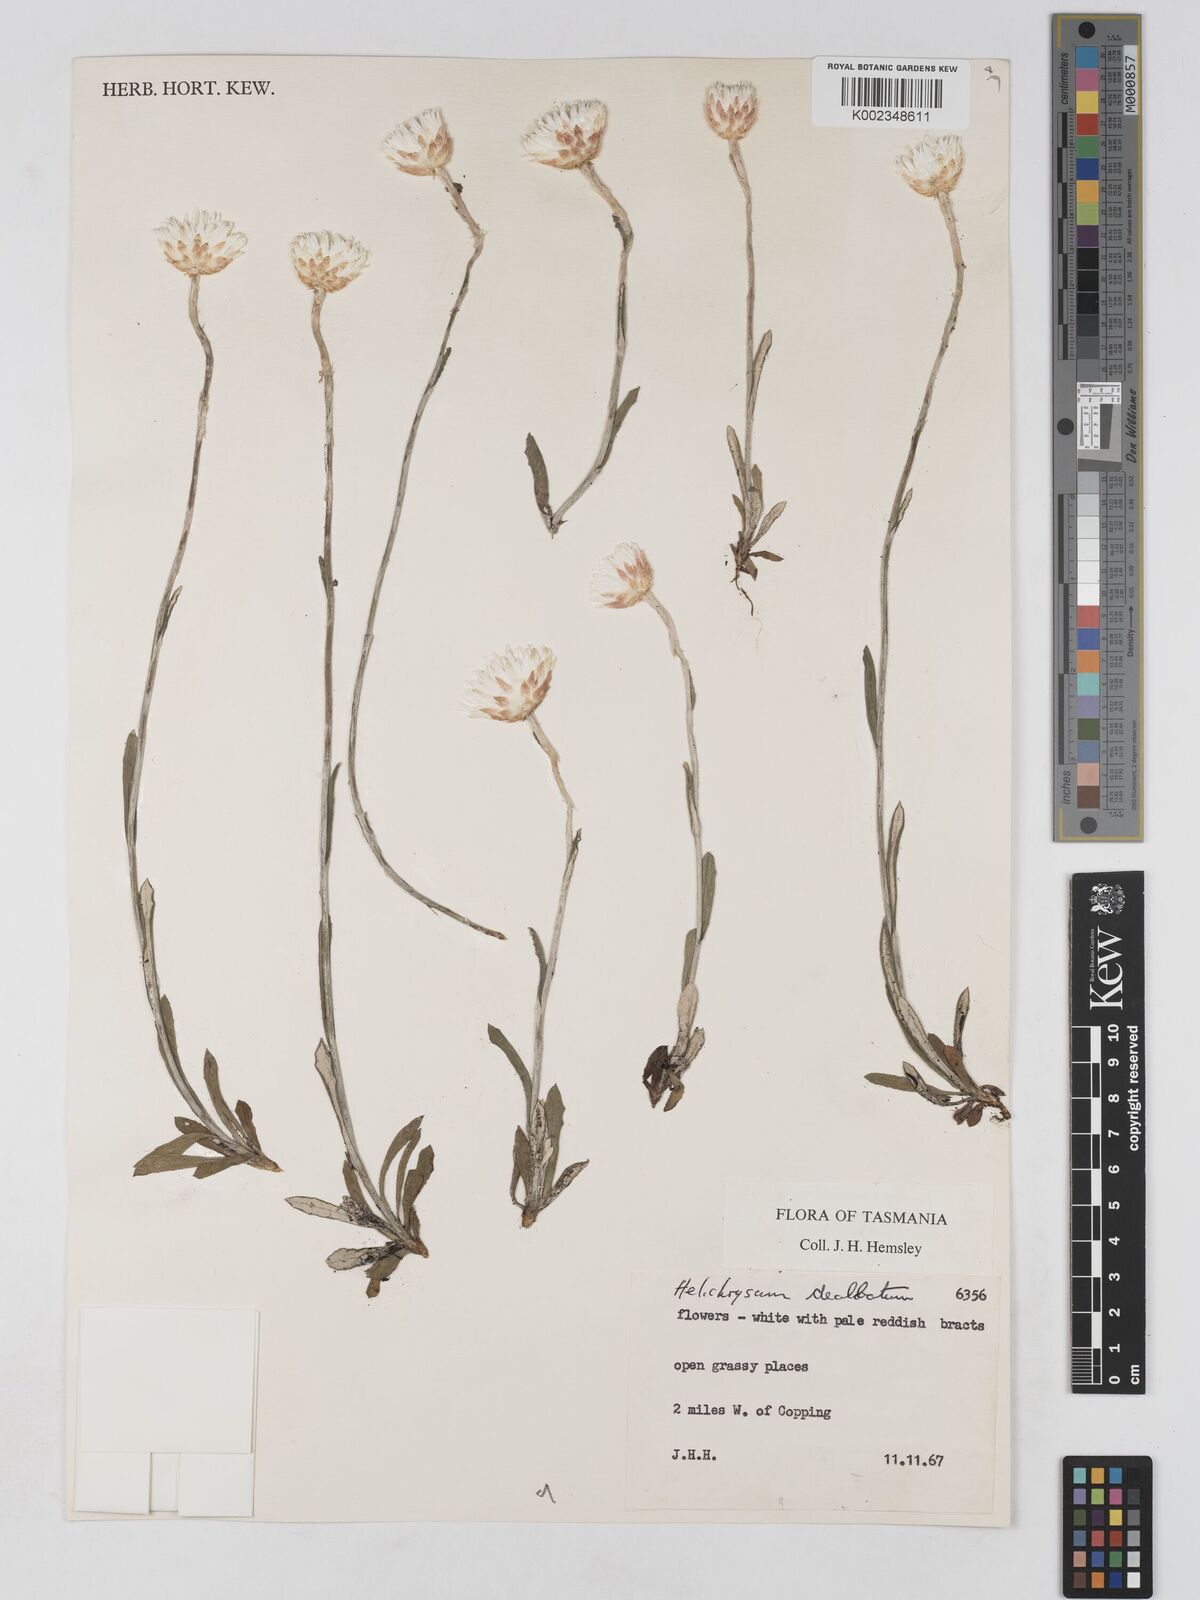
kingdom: Plantae
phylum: Tracheophyta
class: Magnoliopsida
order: Asterales
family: Asteraceae
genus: Argentipallium
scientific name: Argentipallium dealbatum
